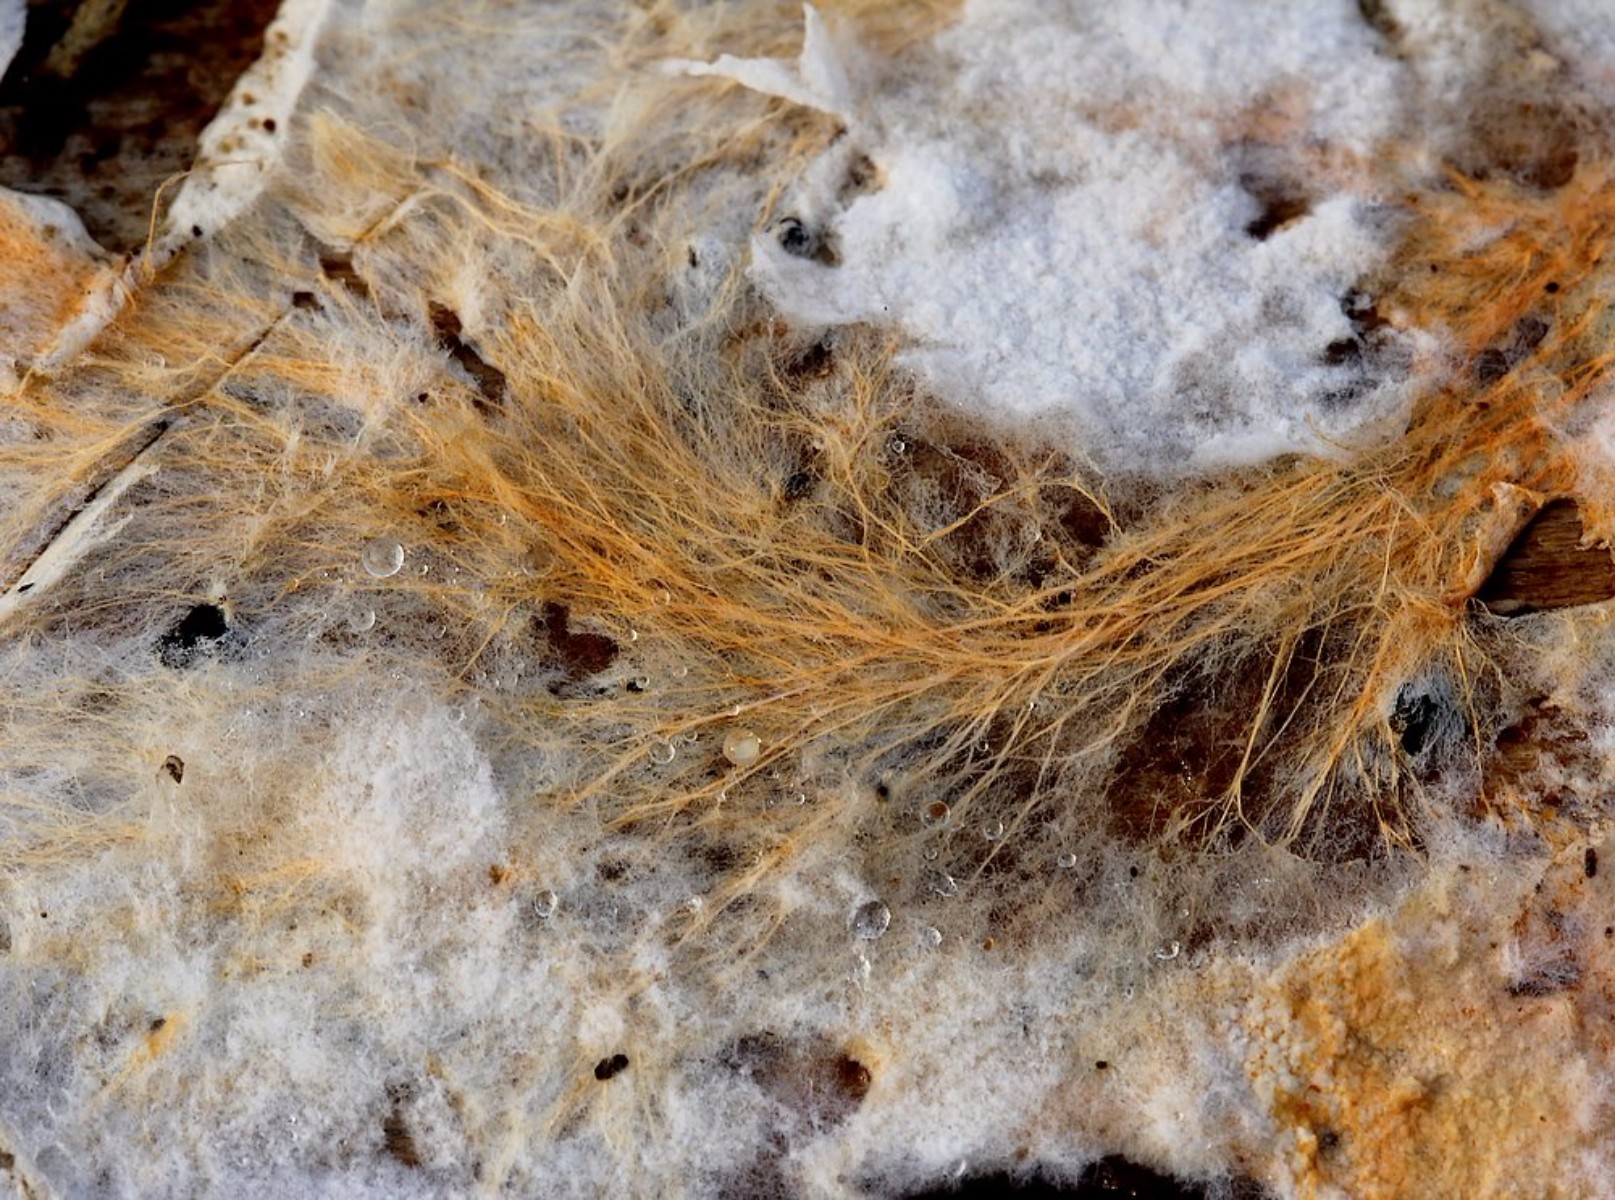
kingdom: Fungi
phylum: Basidiomycota
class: Agaricomycetes
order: Atheliales
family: Atheliaceae
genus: Leptosporomyces
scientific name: Leptosporomyces fuscostratus
